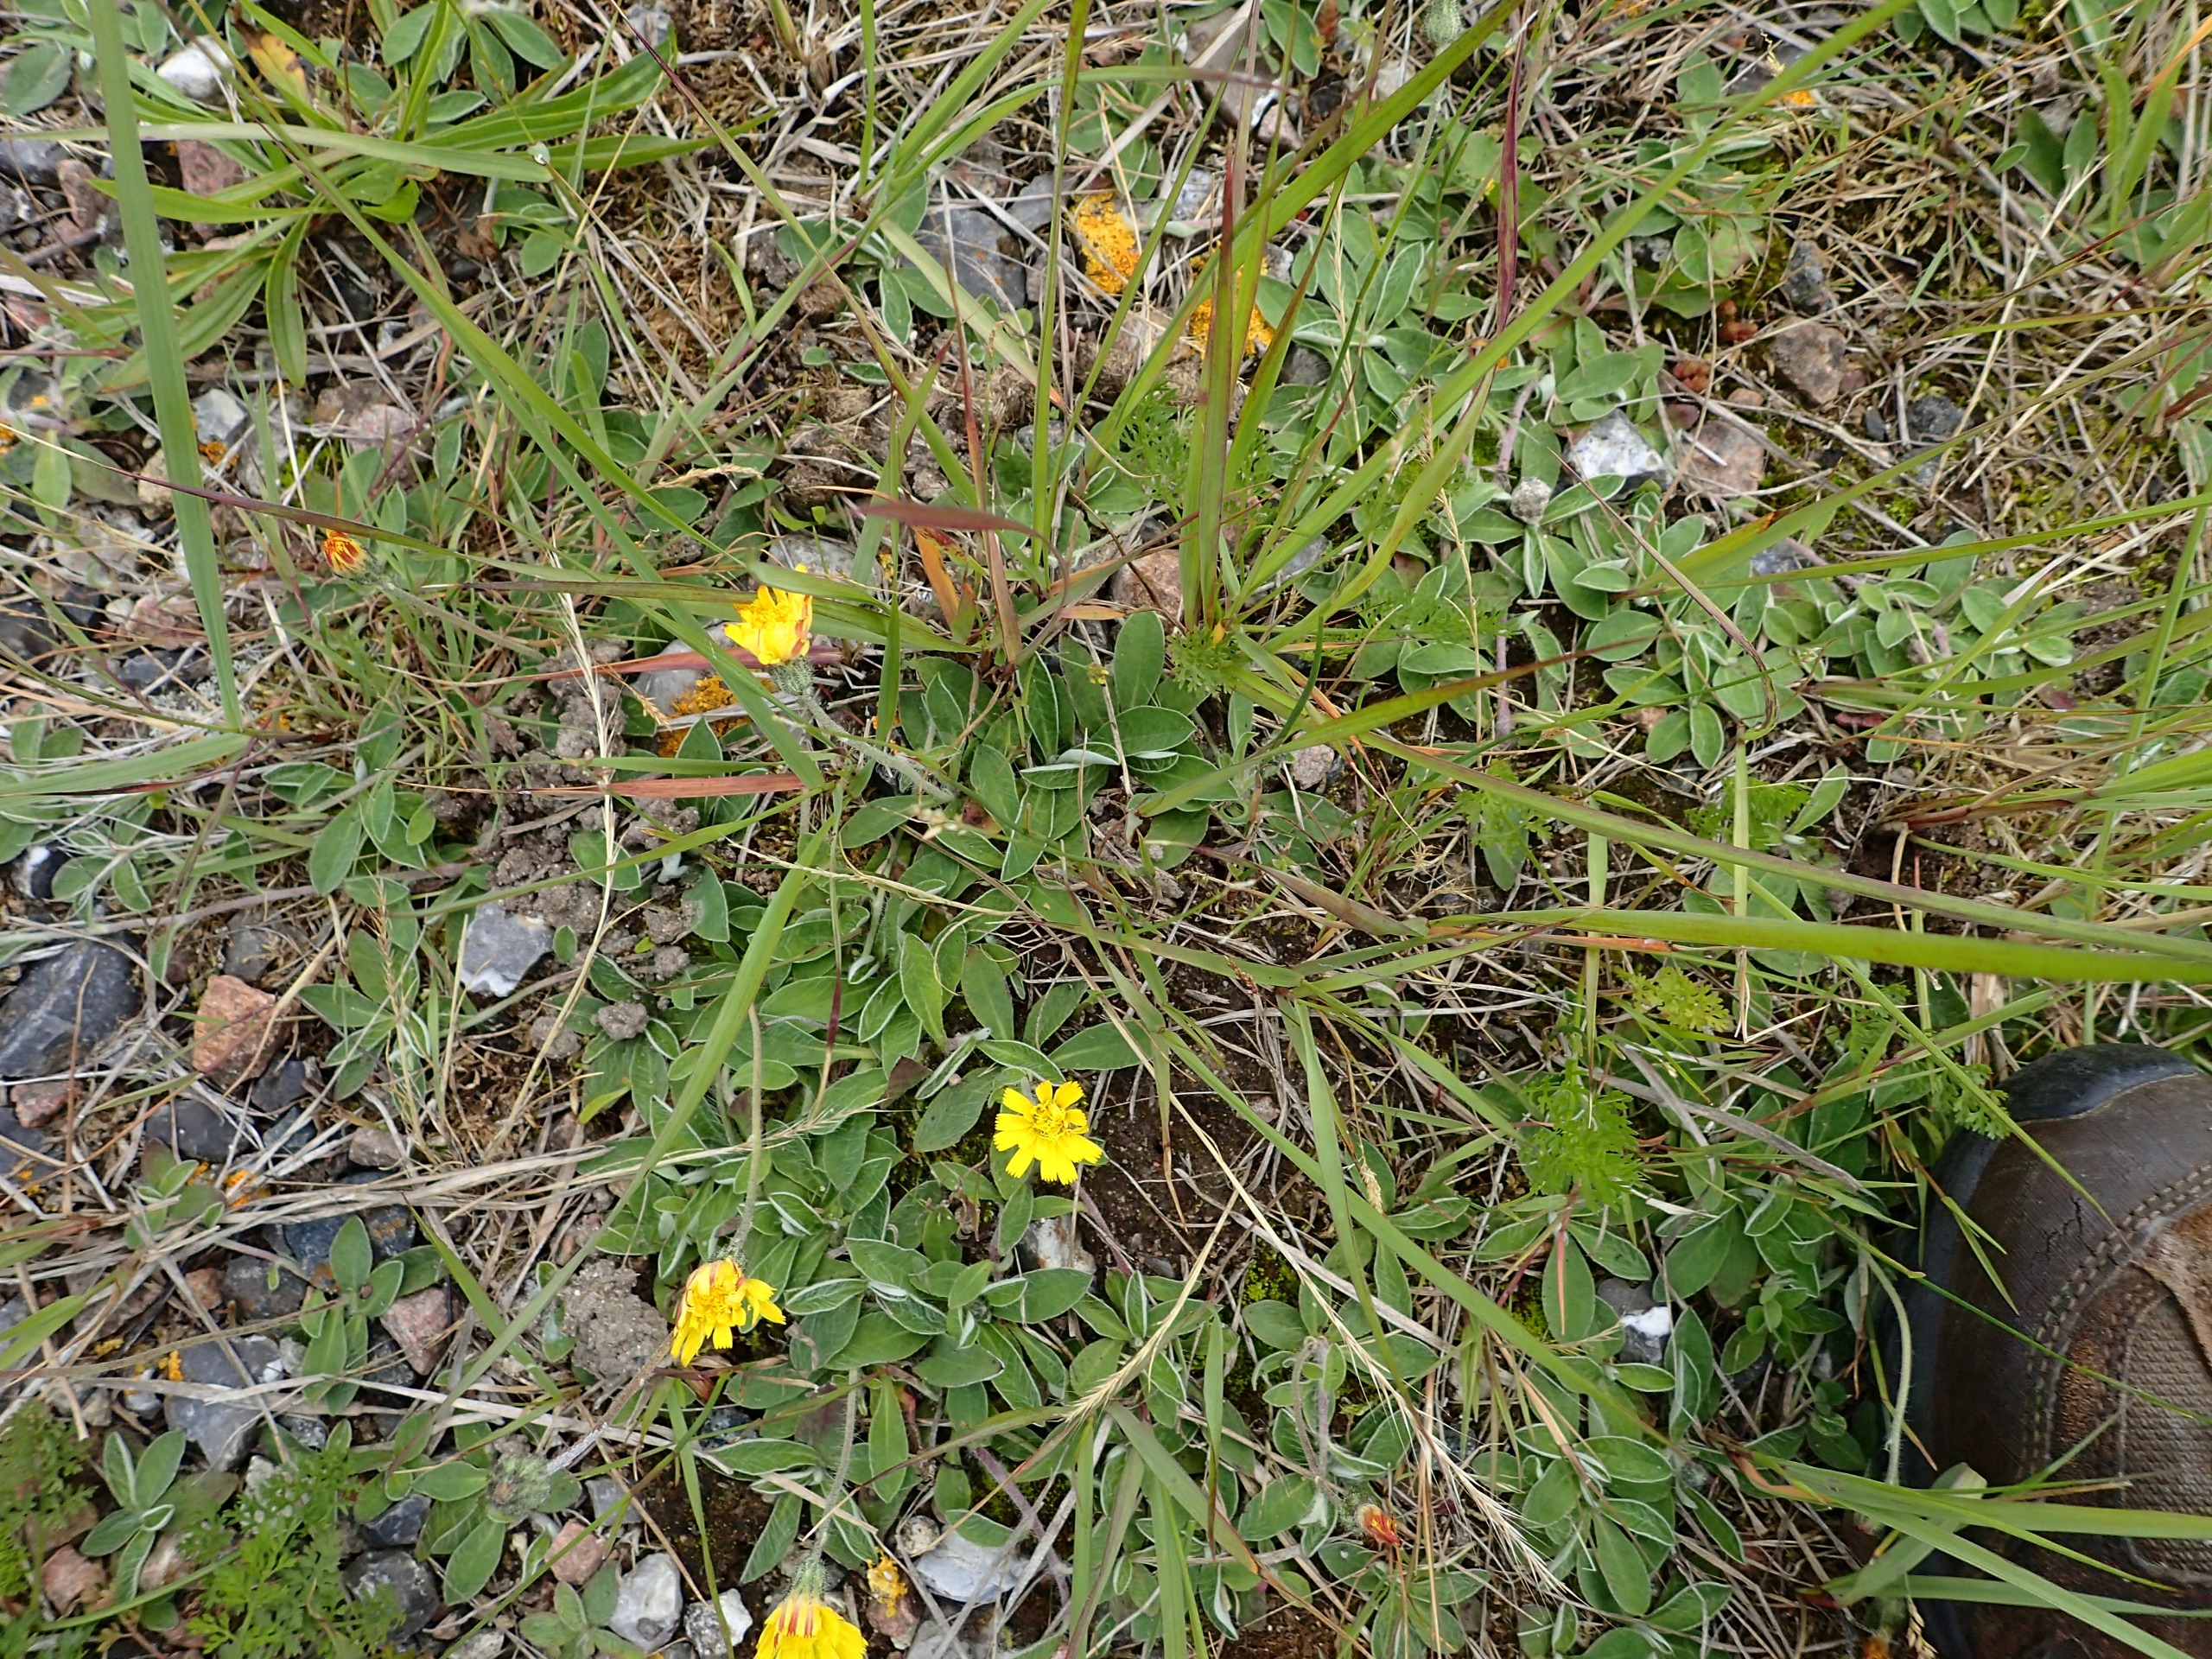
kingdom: Plantae
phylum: Tracheophyta
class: Magnoliopsida
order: Asterales
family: Asteraceae
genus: Pilosella
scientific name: Pilosella officinarum
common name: Håret høgeurt
